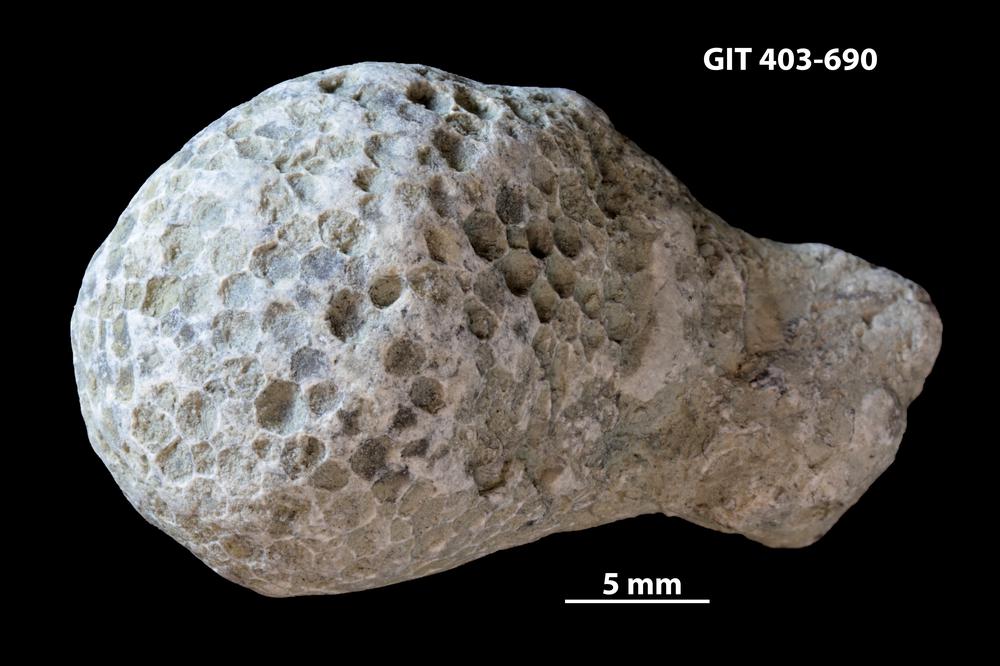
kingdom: Animalia
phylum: Cnidaria
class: Anthozoa
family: Favositidae
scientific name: Favositidae
